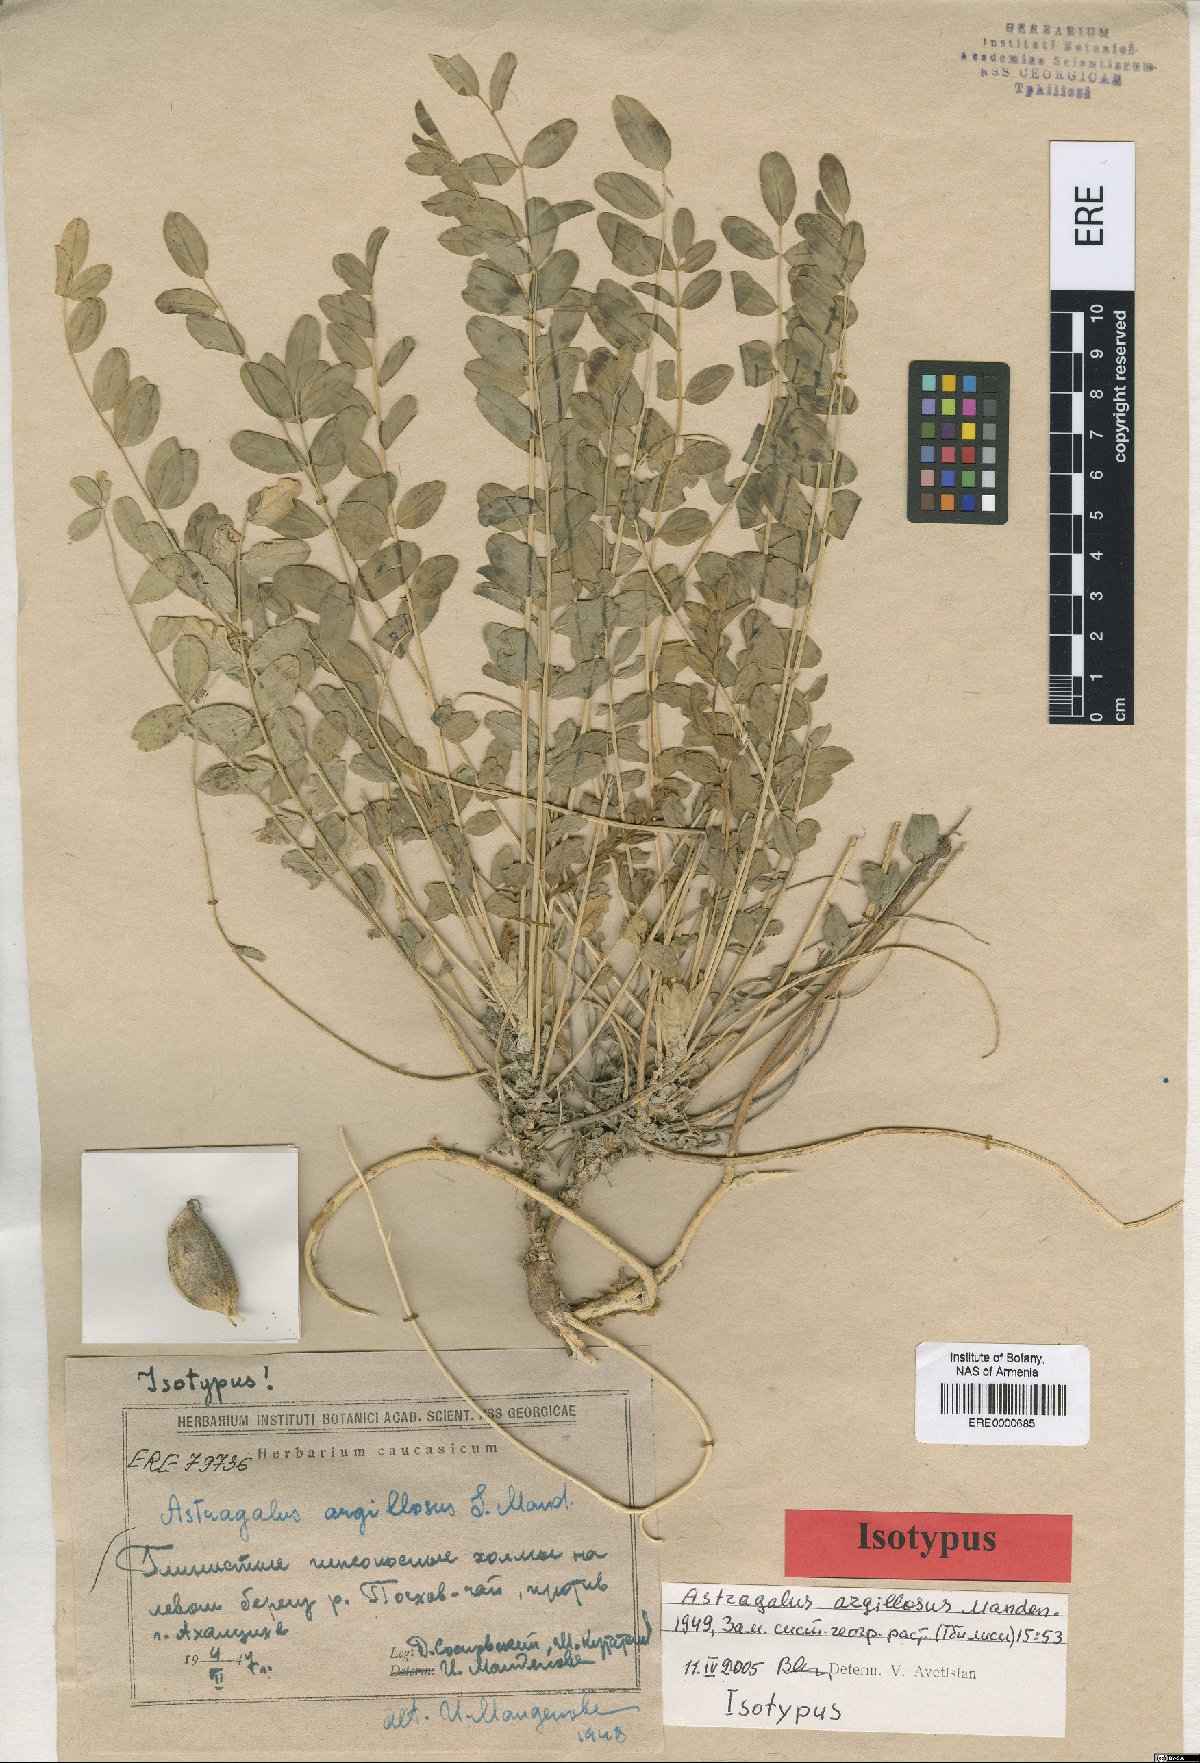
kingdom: Plantae
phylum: Tracheophyta
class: Magnoliopsida
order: Fabales
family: Fabaceae
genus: Astragalus
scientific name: Astragalus aegobromus
